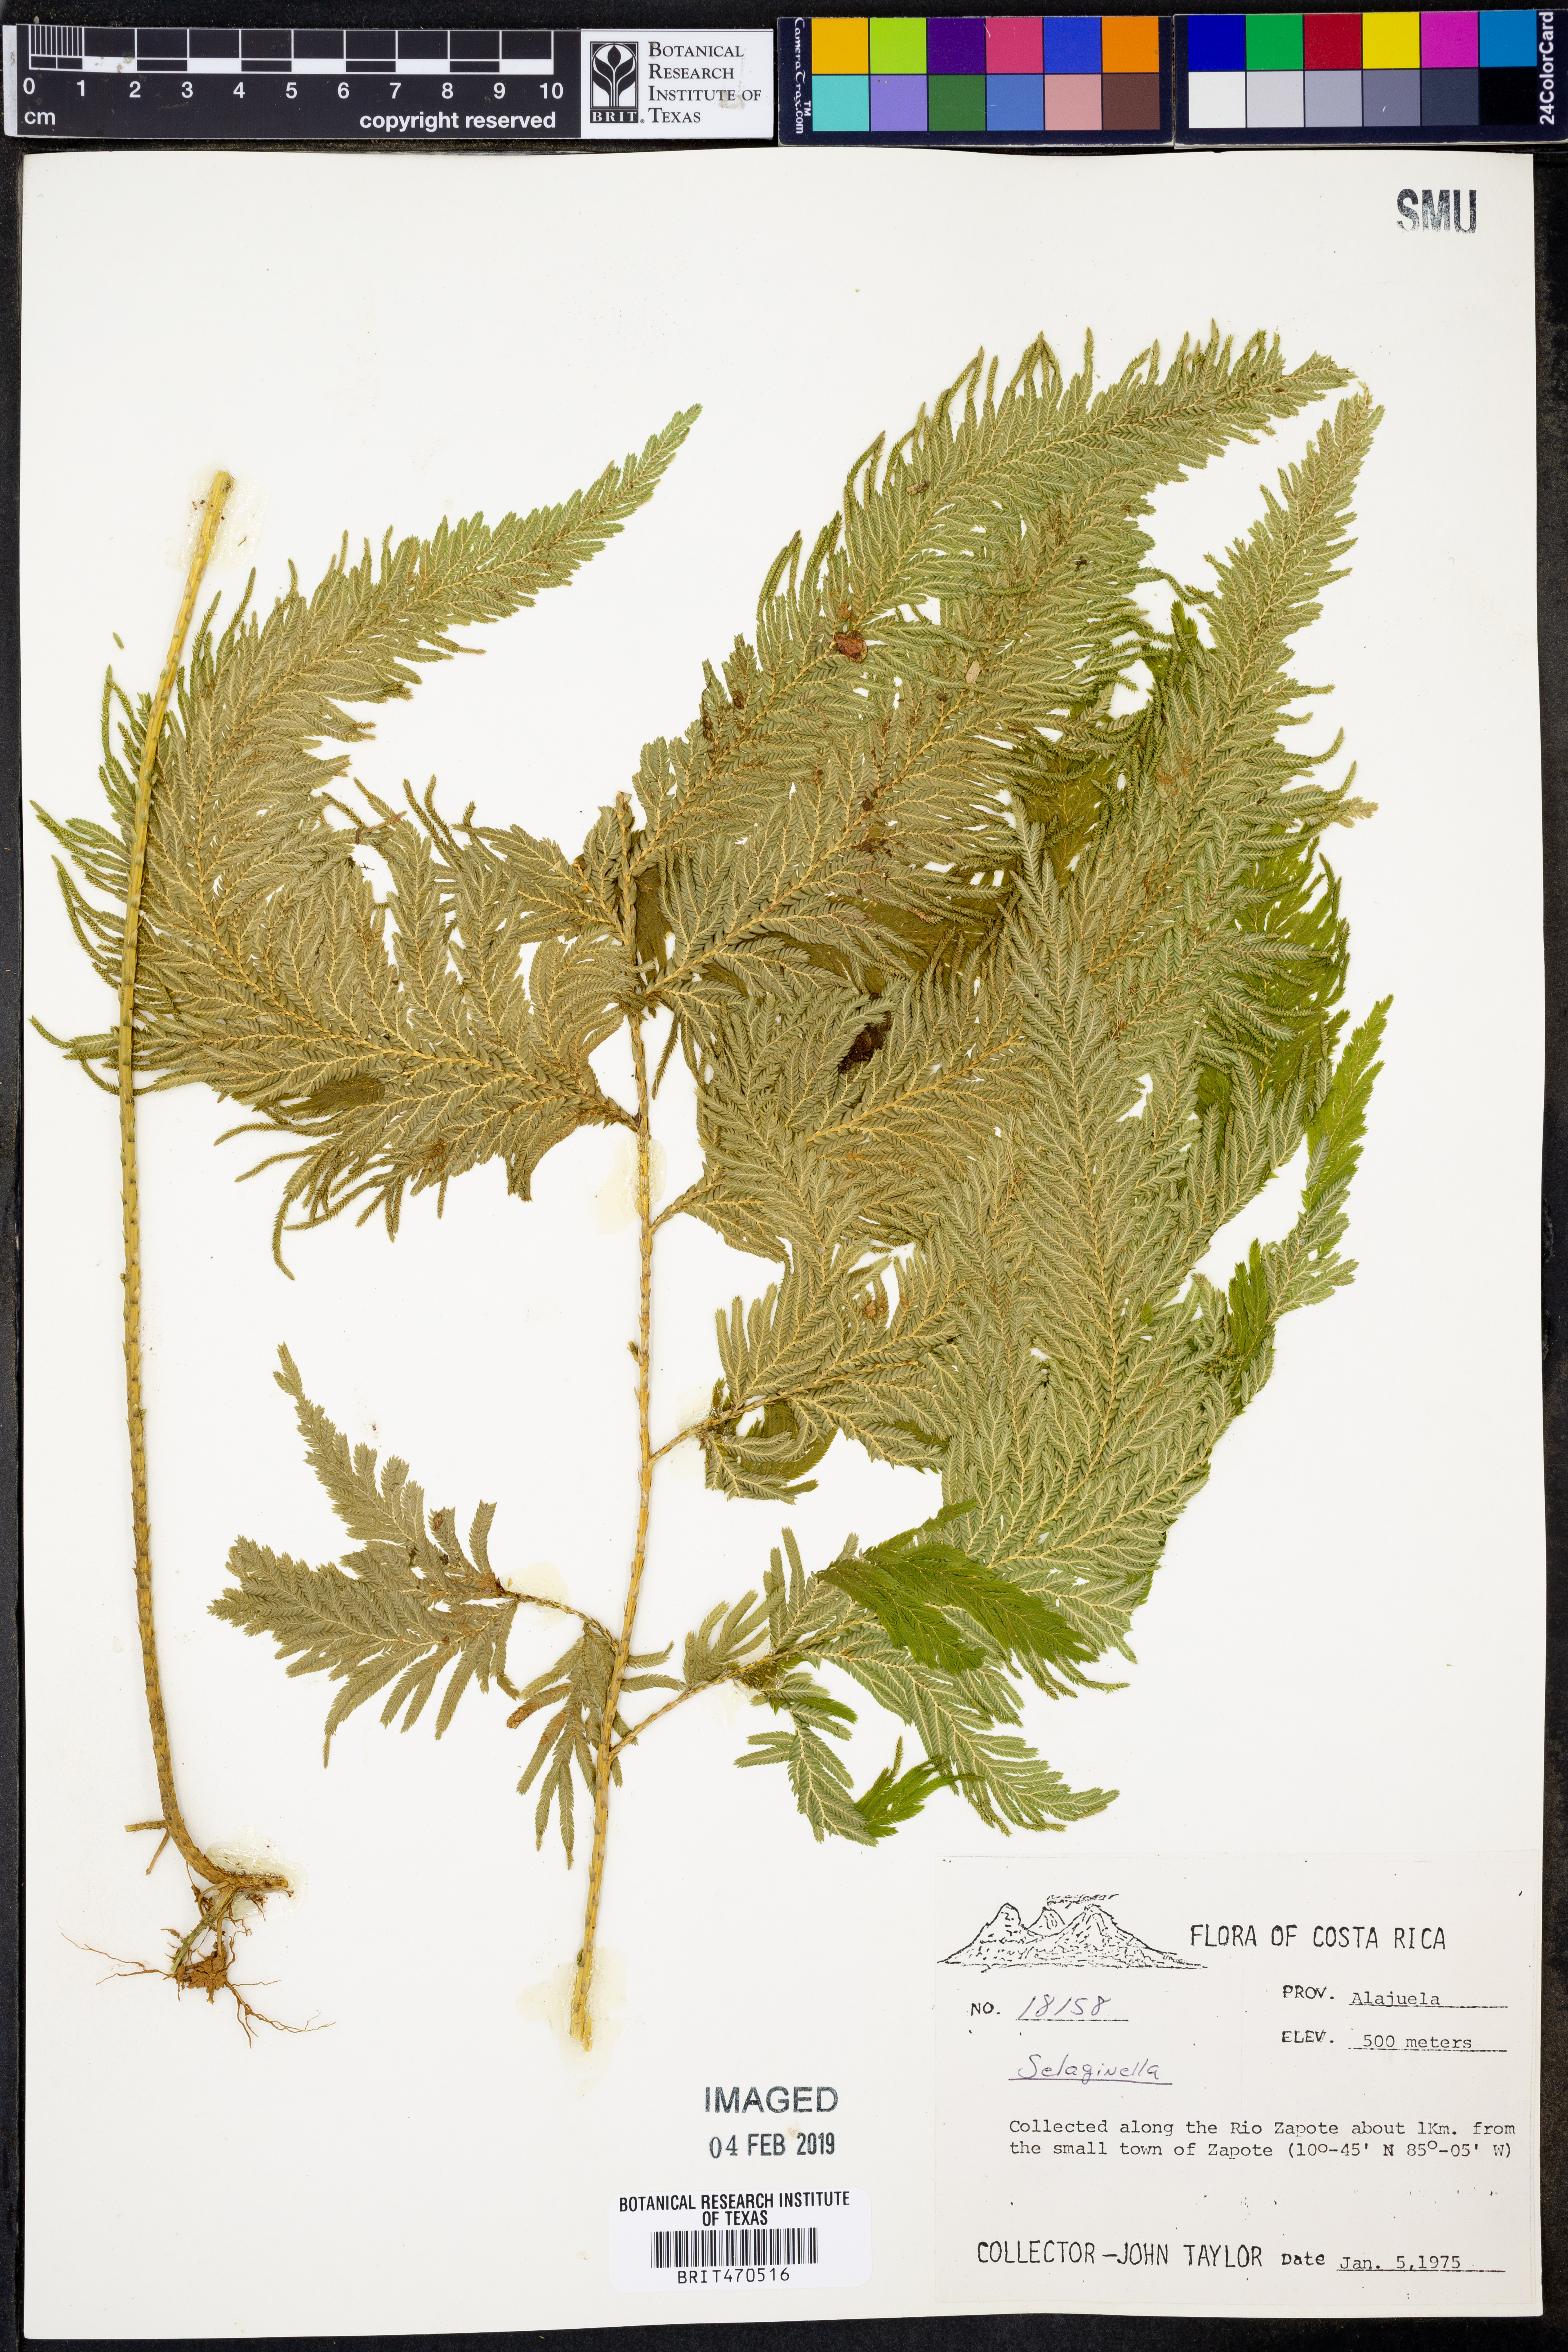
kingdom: Plantae
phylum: Tracheophyta
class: Lycopodiopsida
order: Selaginellales
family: Selaginellaceae
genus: Selaginella
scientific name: Selaginella
